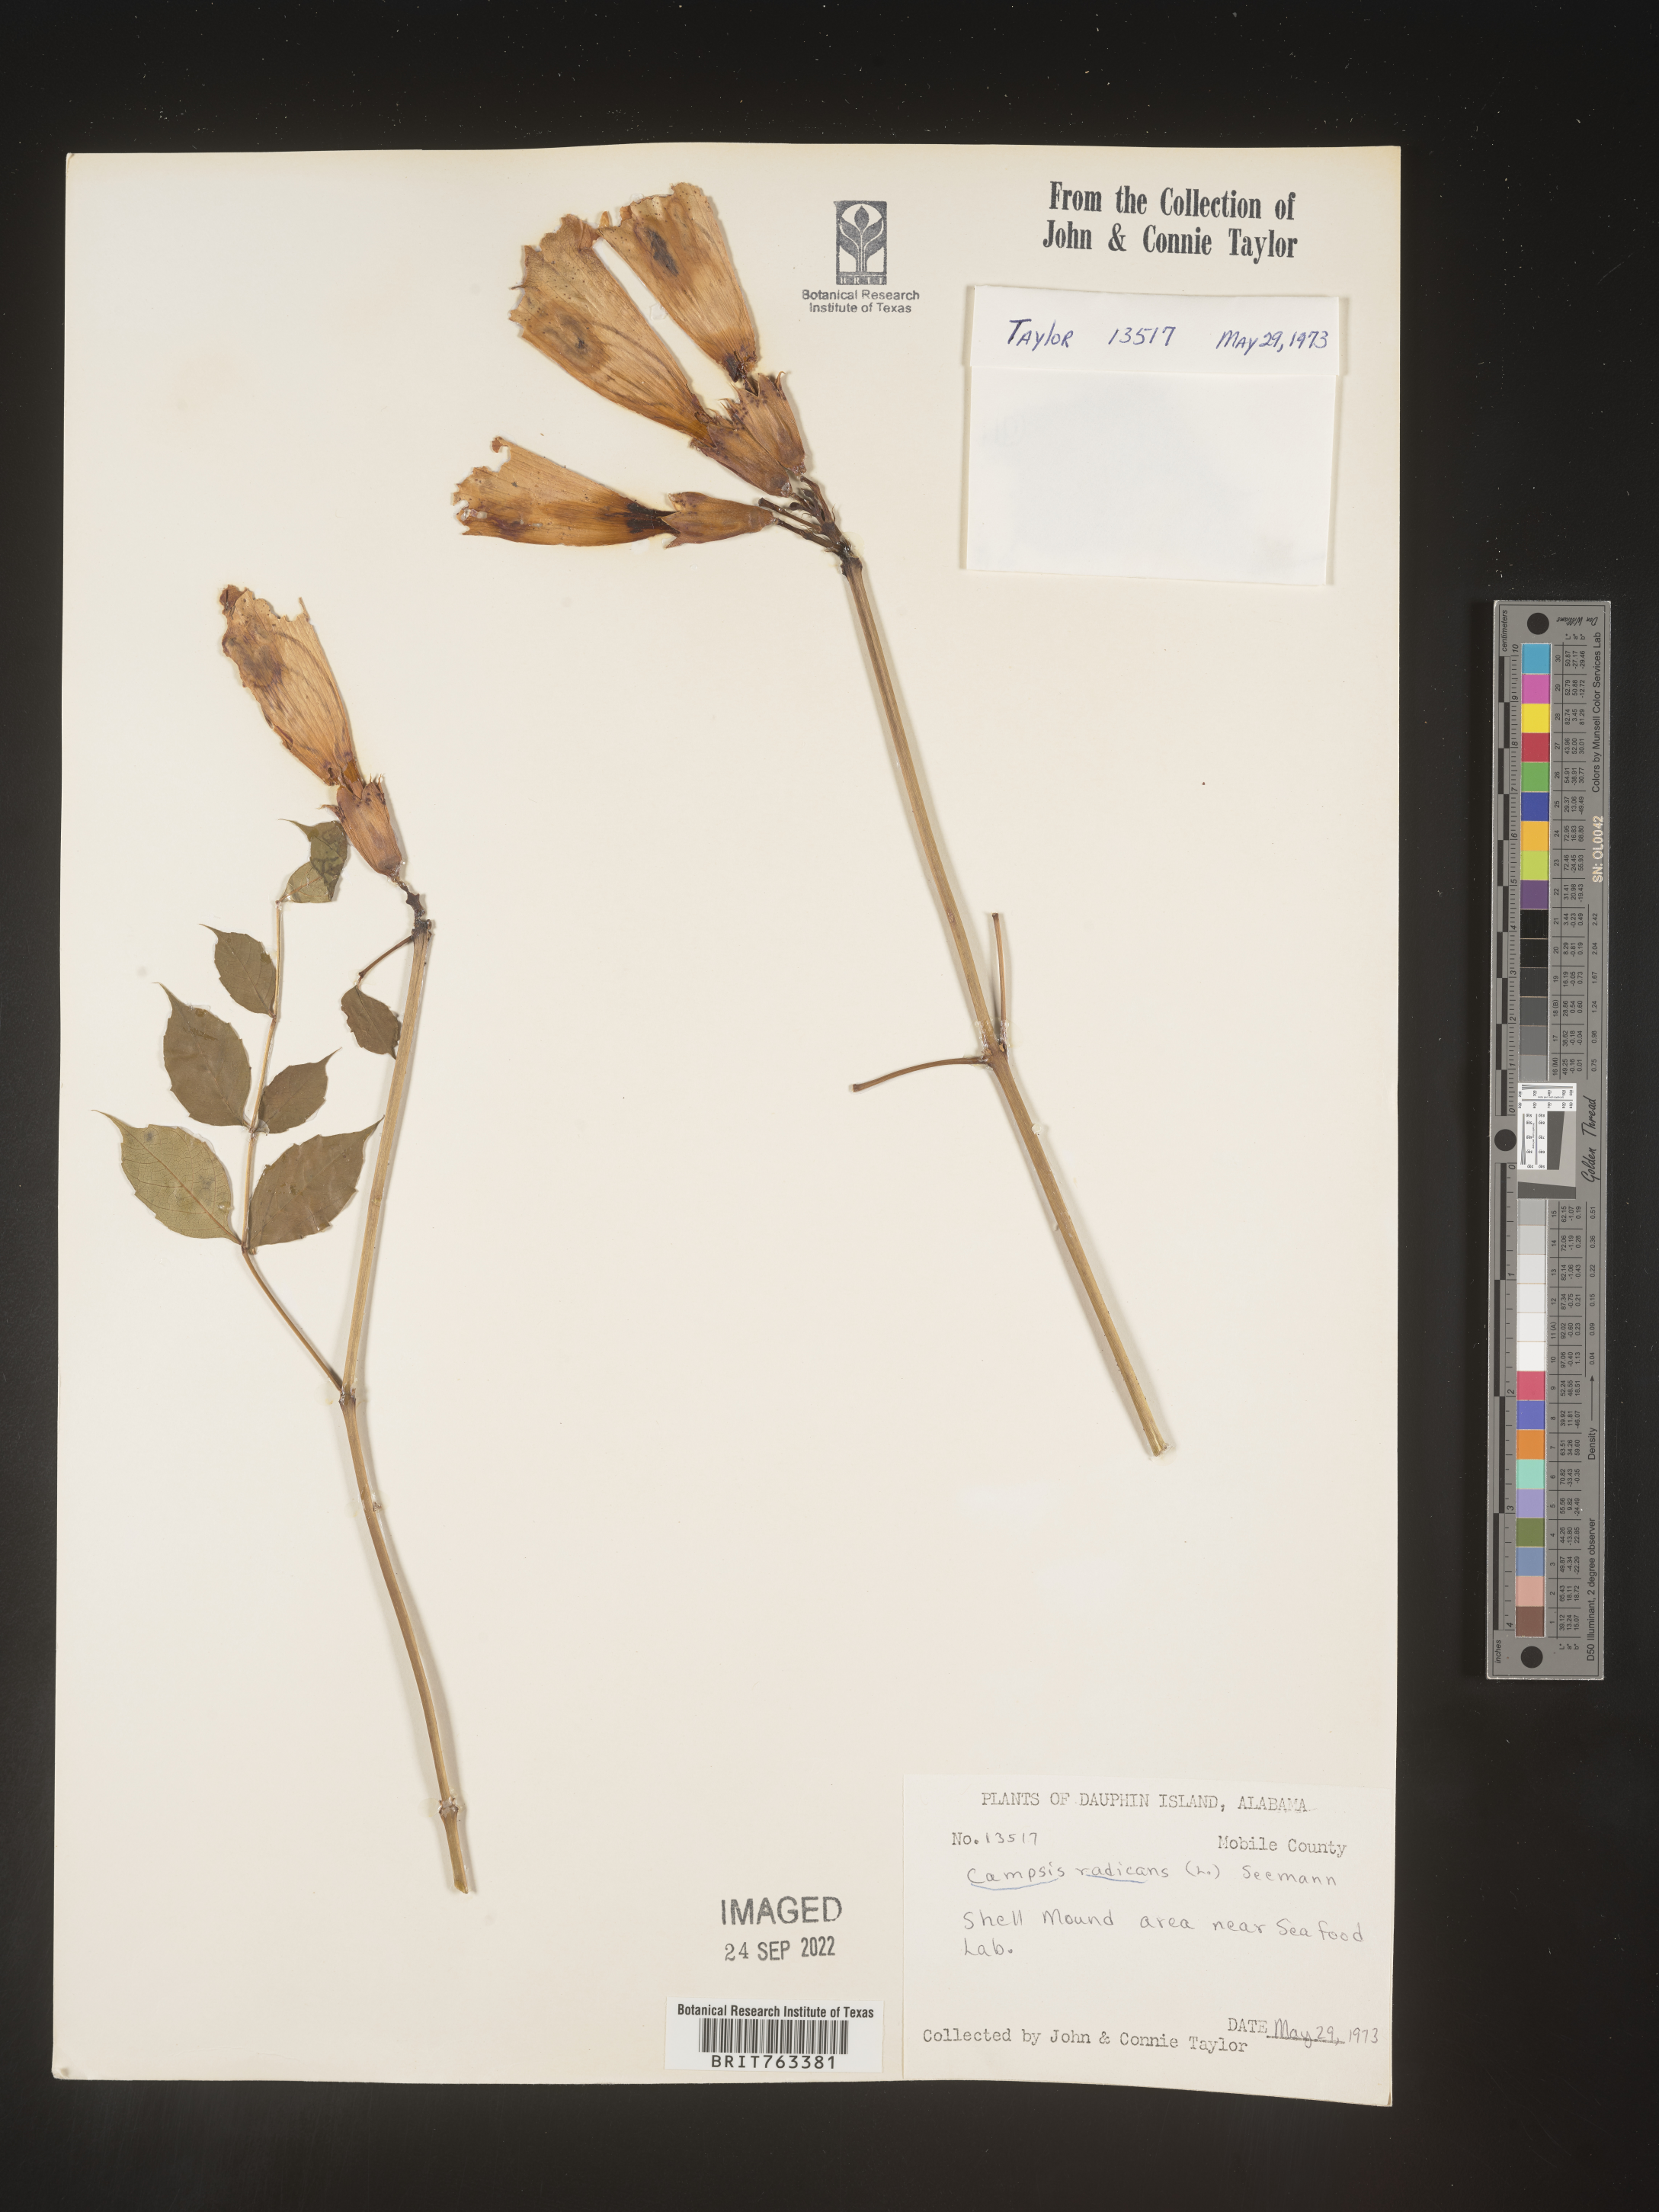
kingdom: Plantae
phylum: Tracheophyta
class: Magnoliopsida
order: Lamiales
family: Bignoniaceae
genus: Campsis
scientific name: Campsis radicans
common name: Trumpet-creeper
